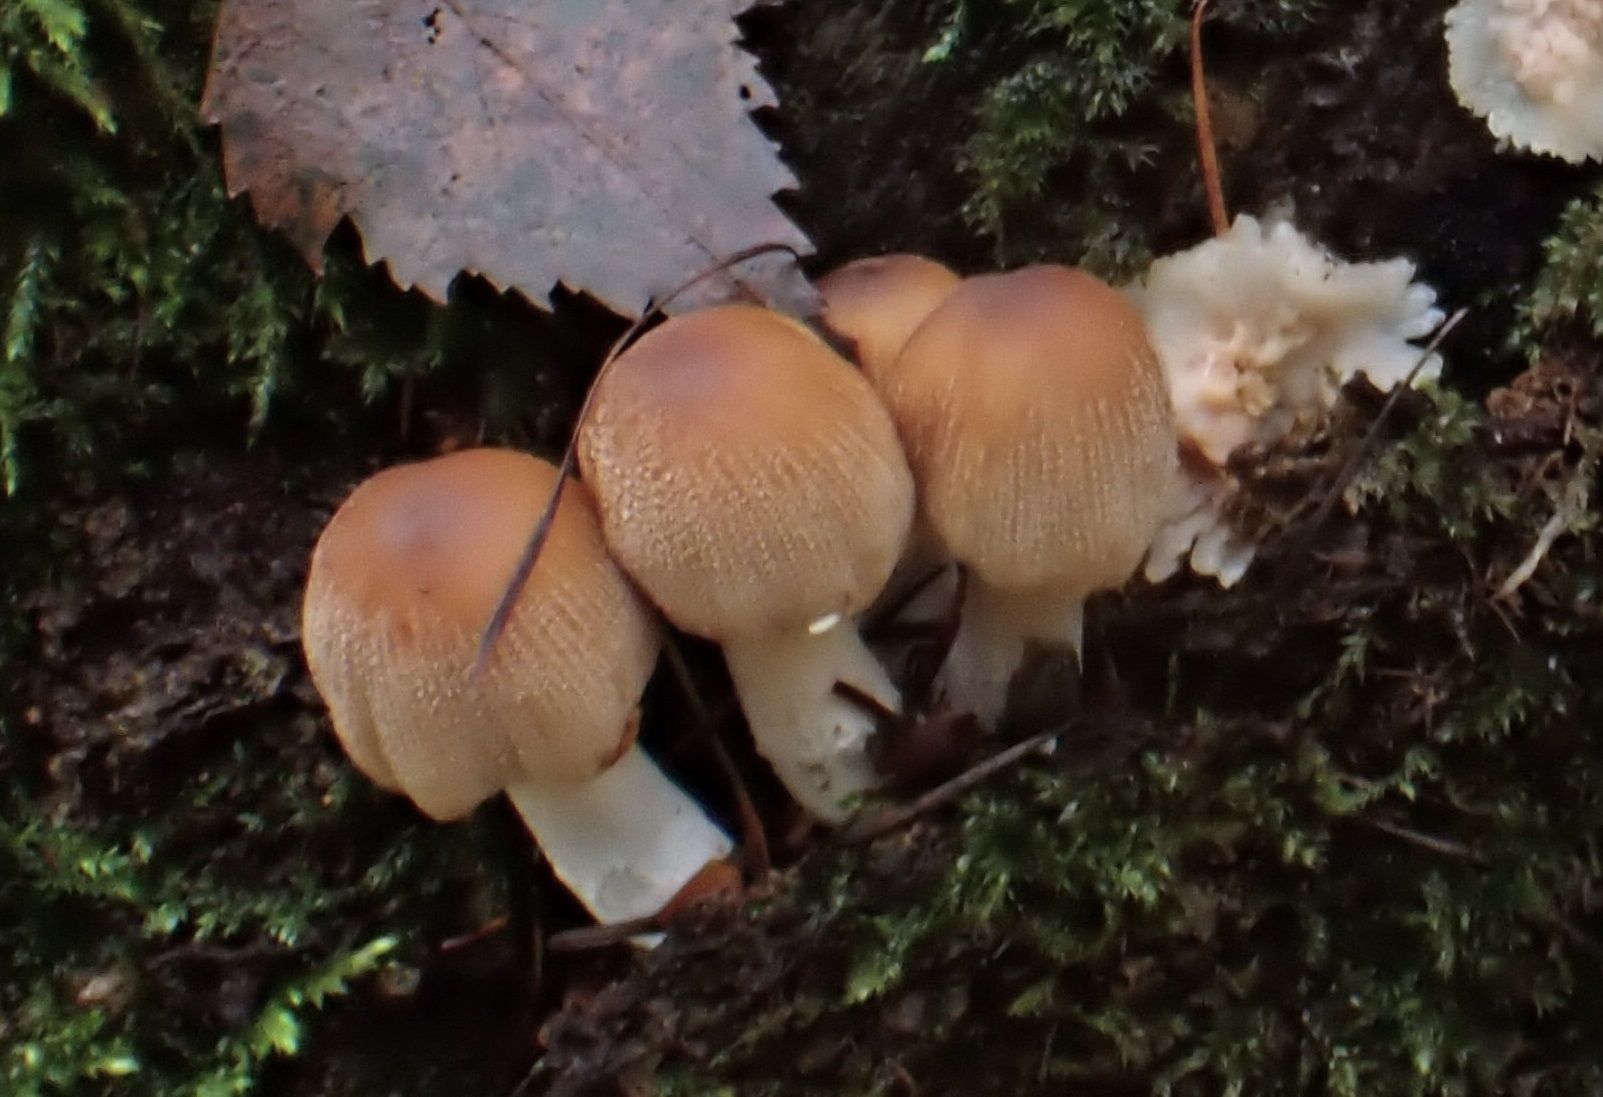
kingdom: Fungi
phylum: Basidiomycota
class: Agaricomycetes
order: Agaricales
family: Psathyrellaceae
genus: Coprinellus
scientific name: Coprinellus micaceus
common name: glimmer-blækhat
